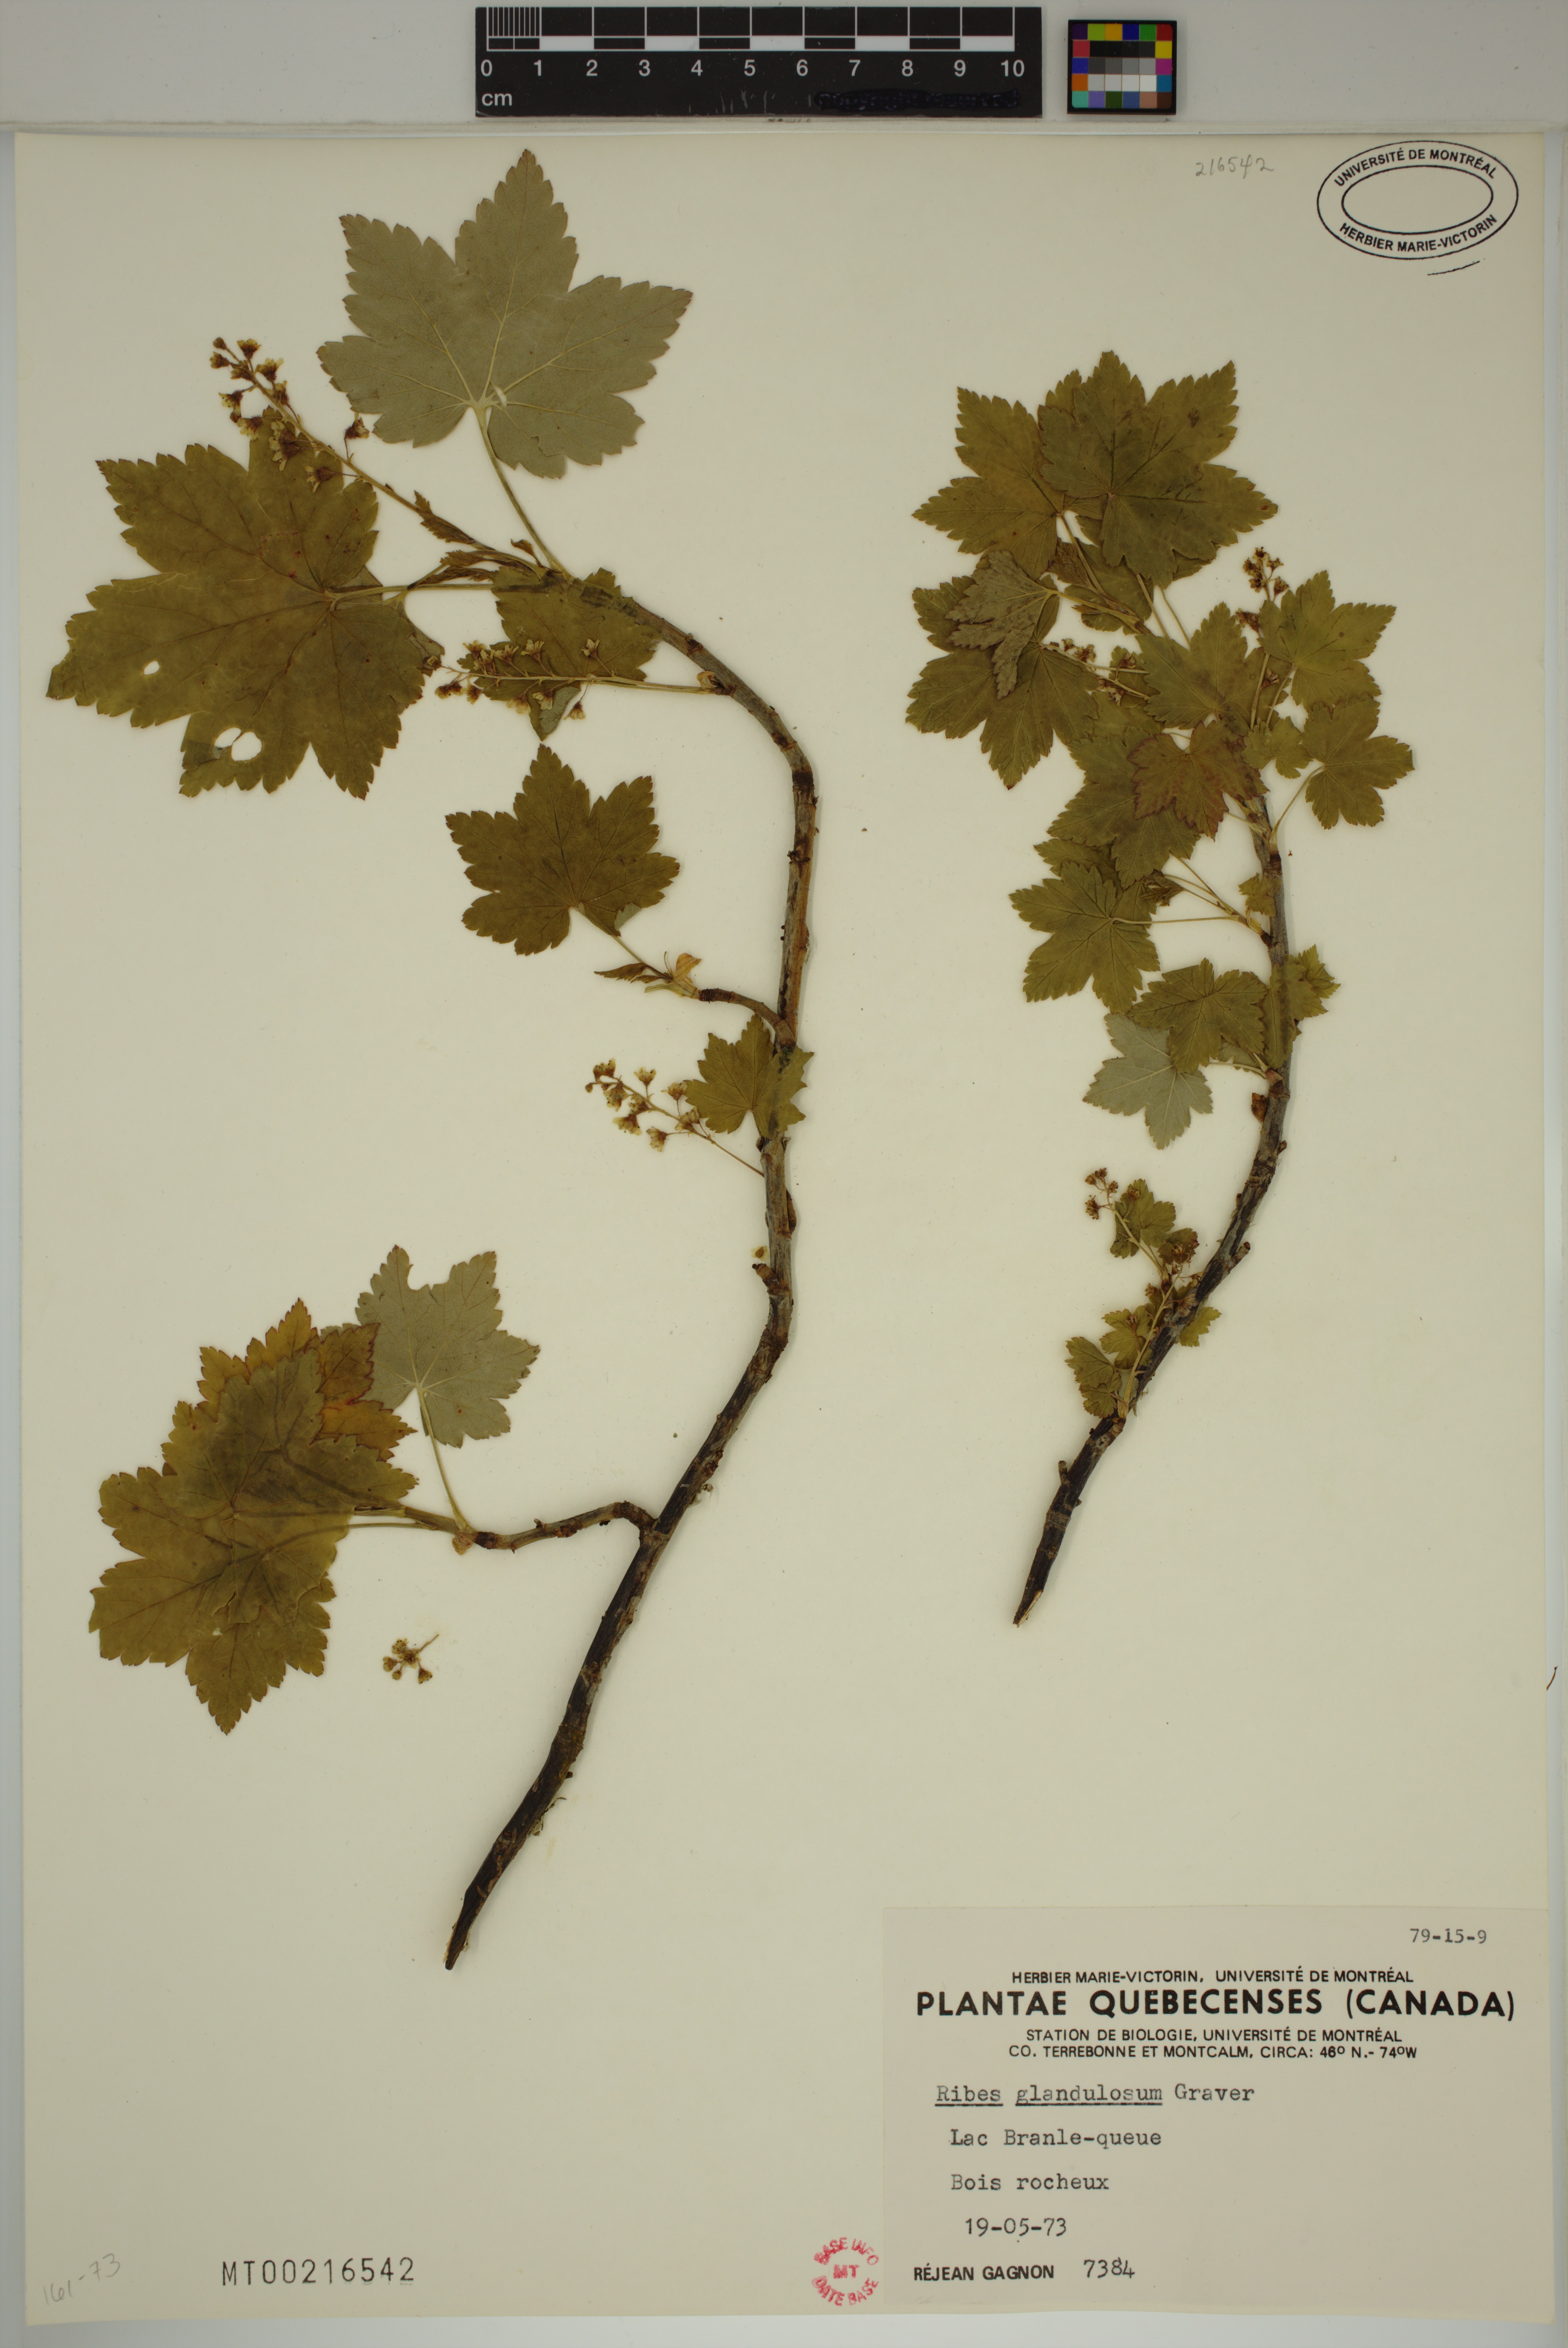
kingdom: Plantae
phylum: Tracheophyta
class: Magnoliopsida
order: Saxifragales
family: Grossulariaceae
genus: Ribes
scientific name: Ribes glandulosum
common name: Skunk currant
